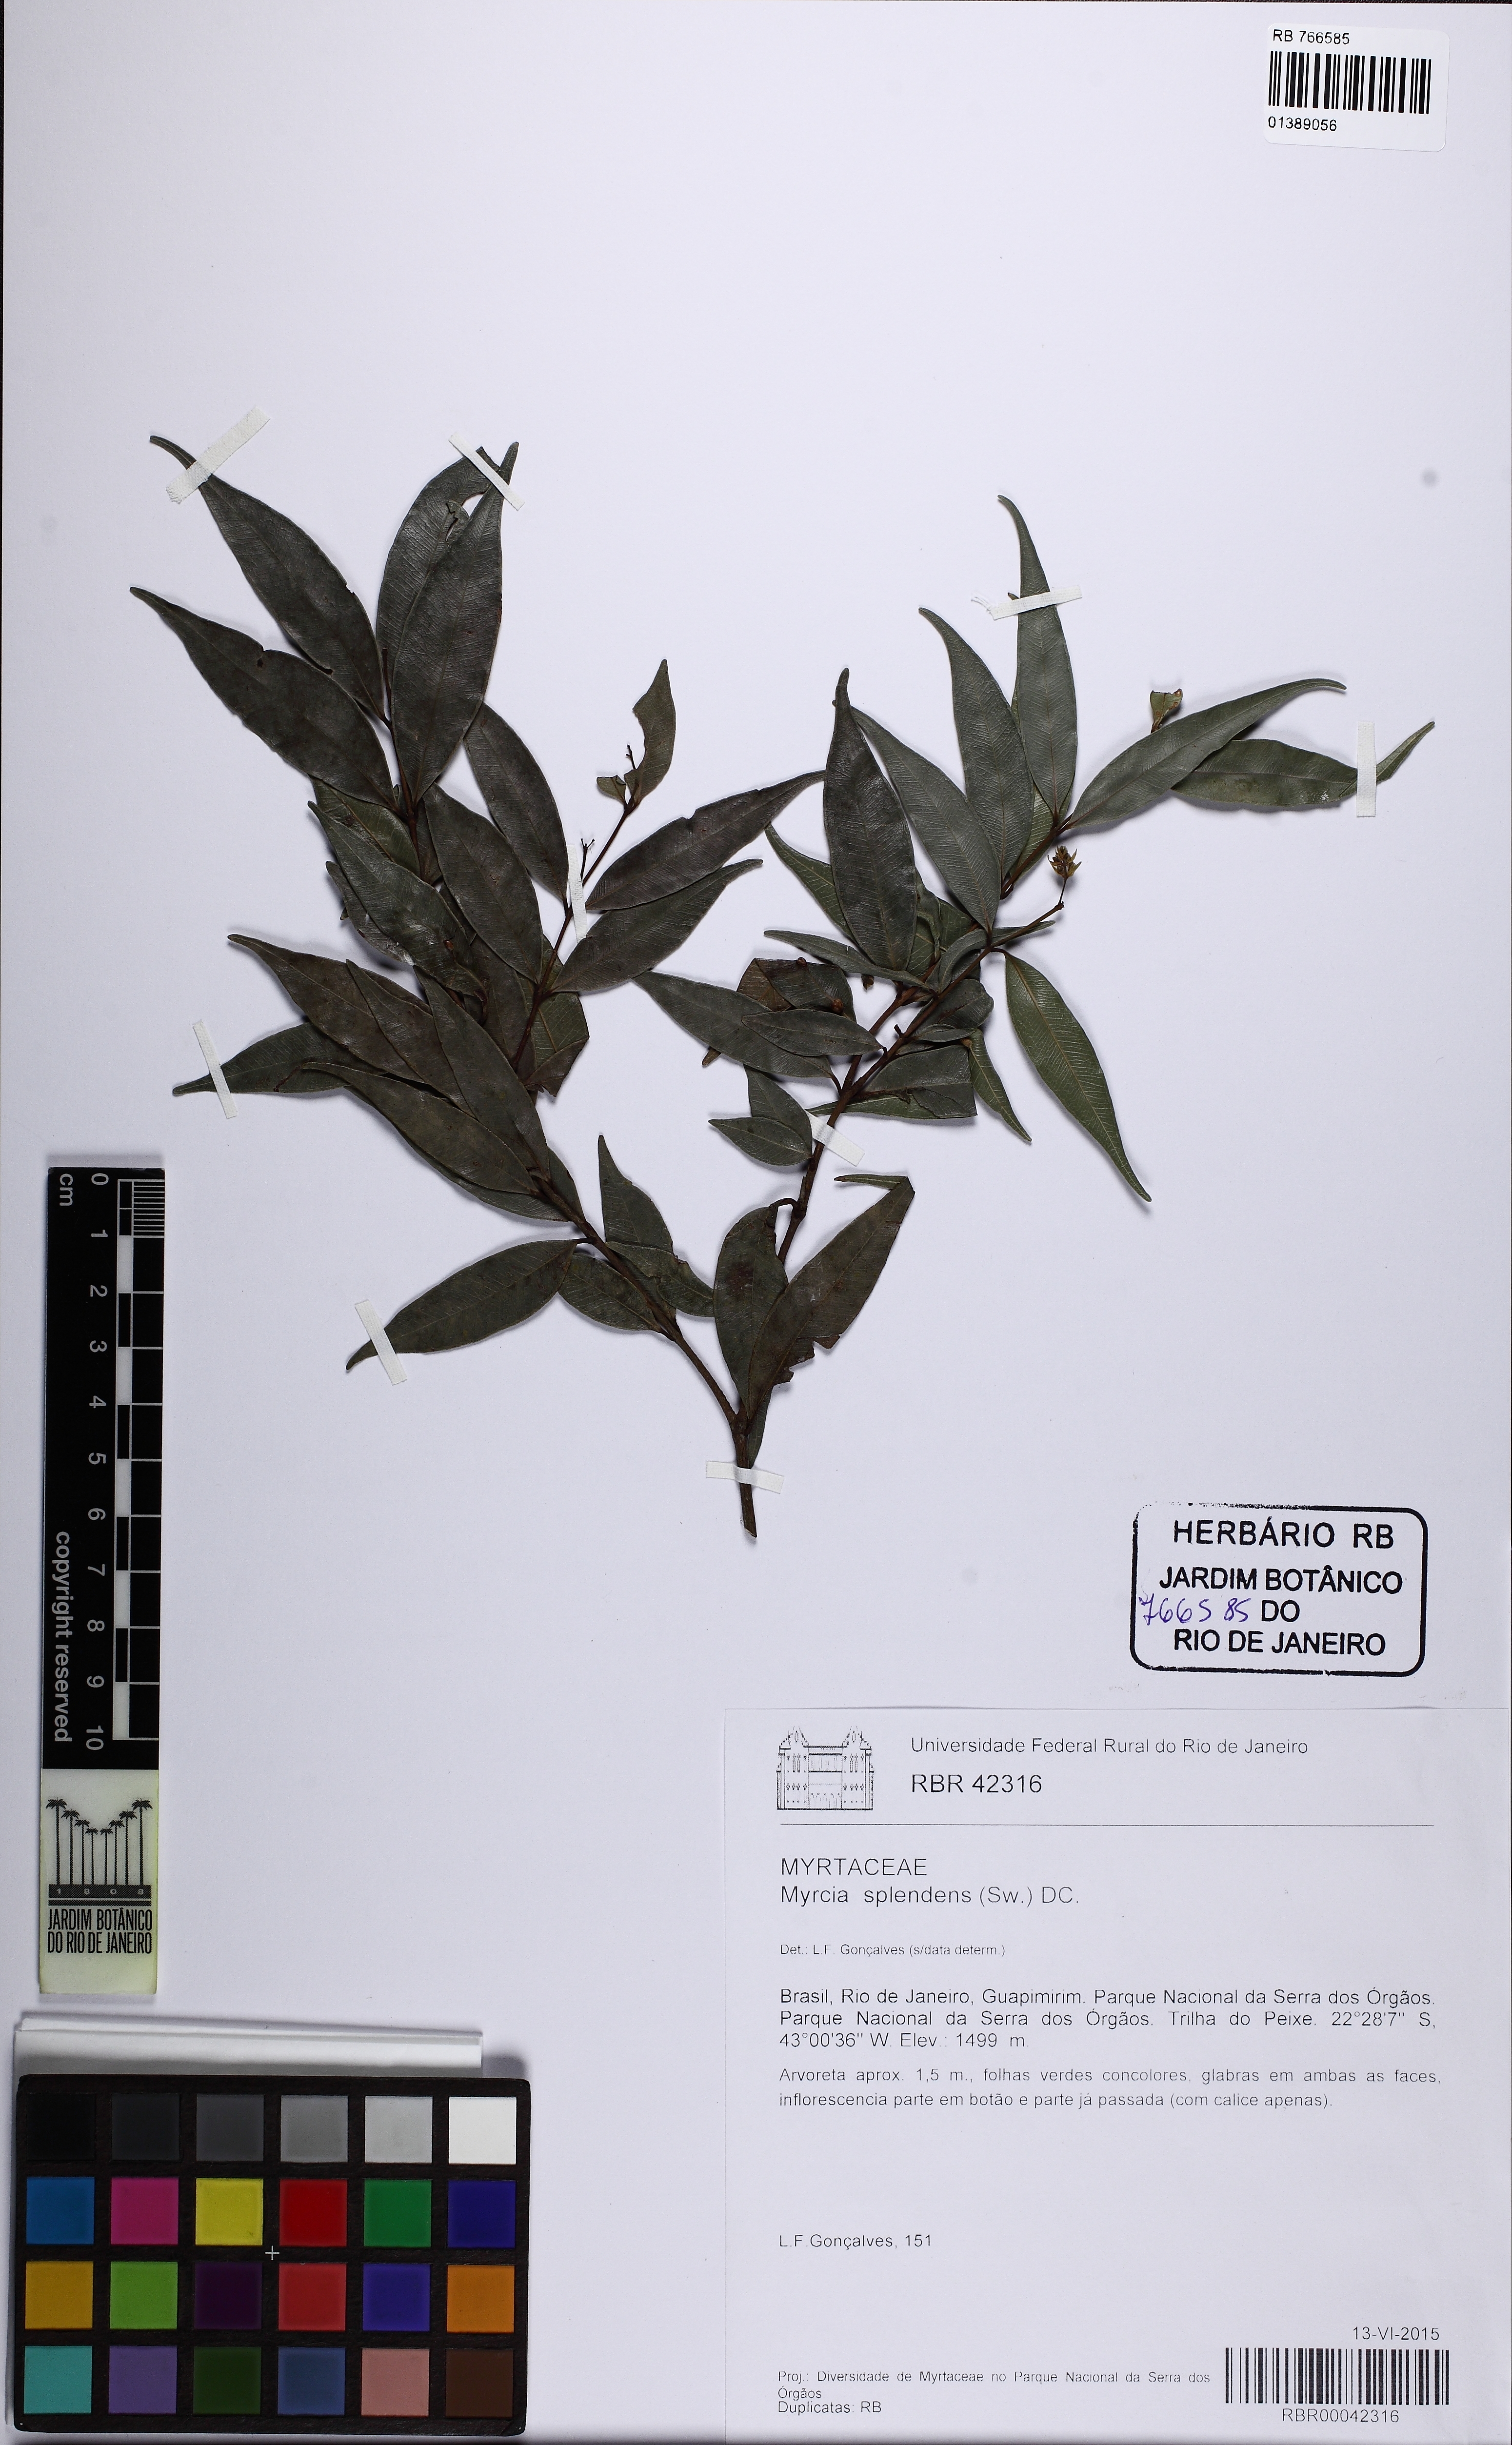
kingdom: Plantae
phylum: Tracheophyta
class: Magnoliopsida
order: Myrtales
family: Myrtaceae
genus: Myrcia
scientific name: Myrcia splendens
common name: Surinam cherry
